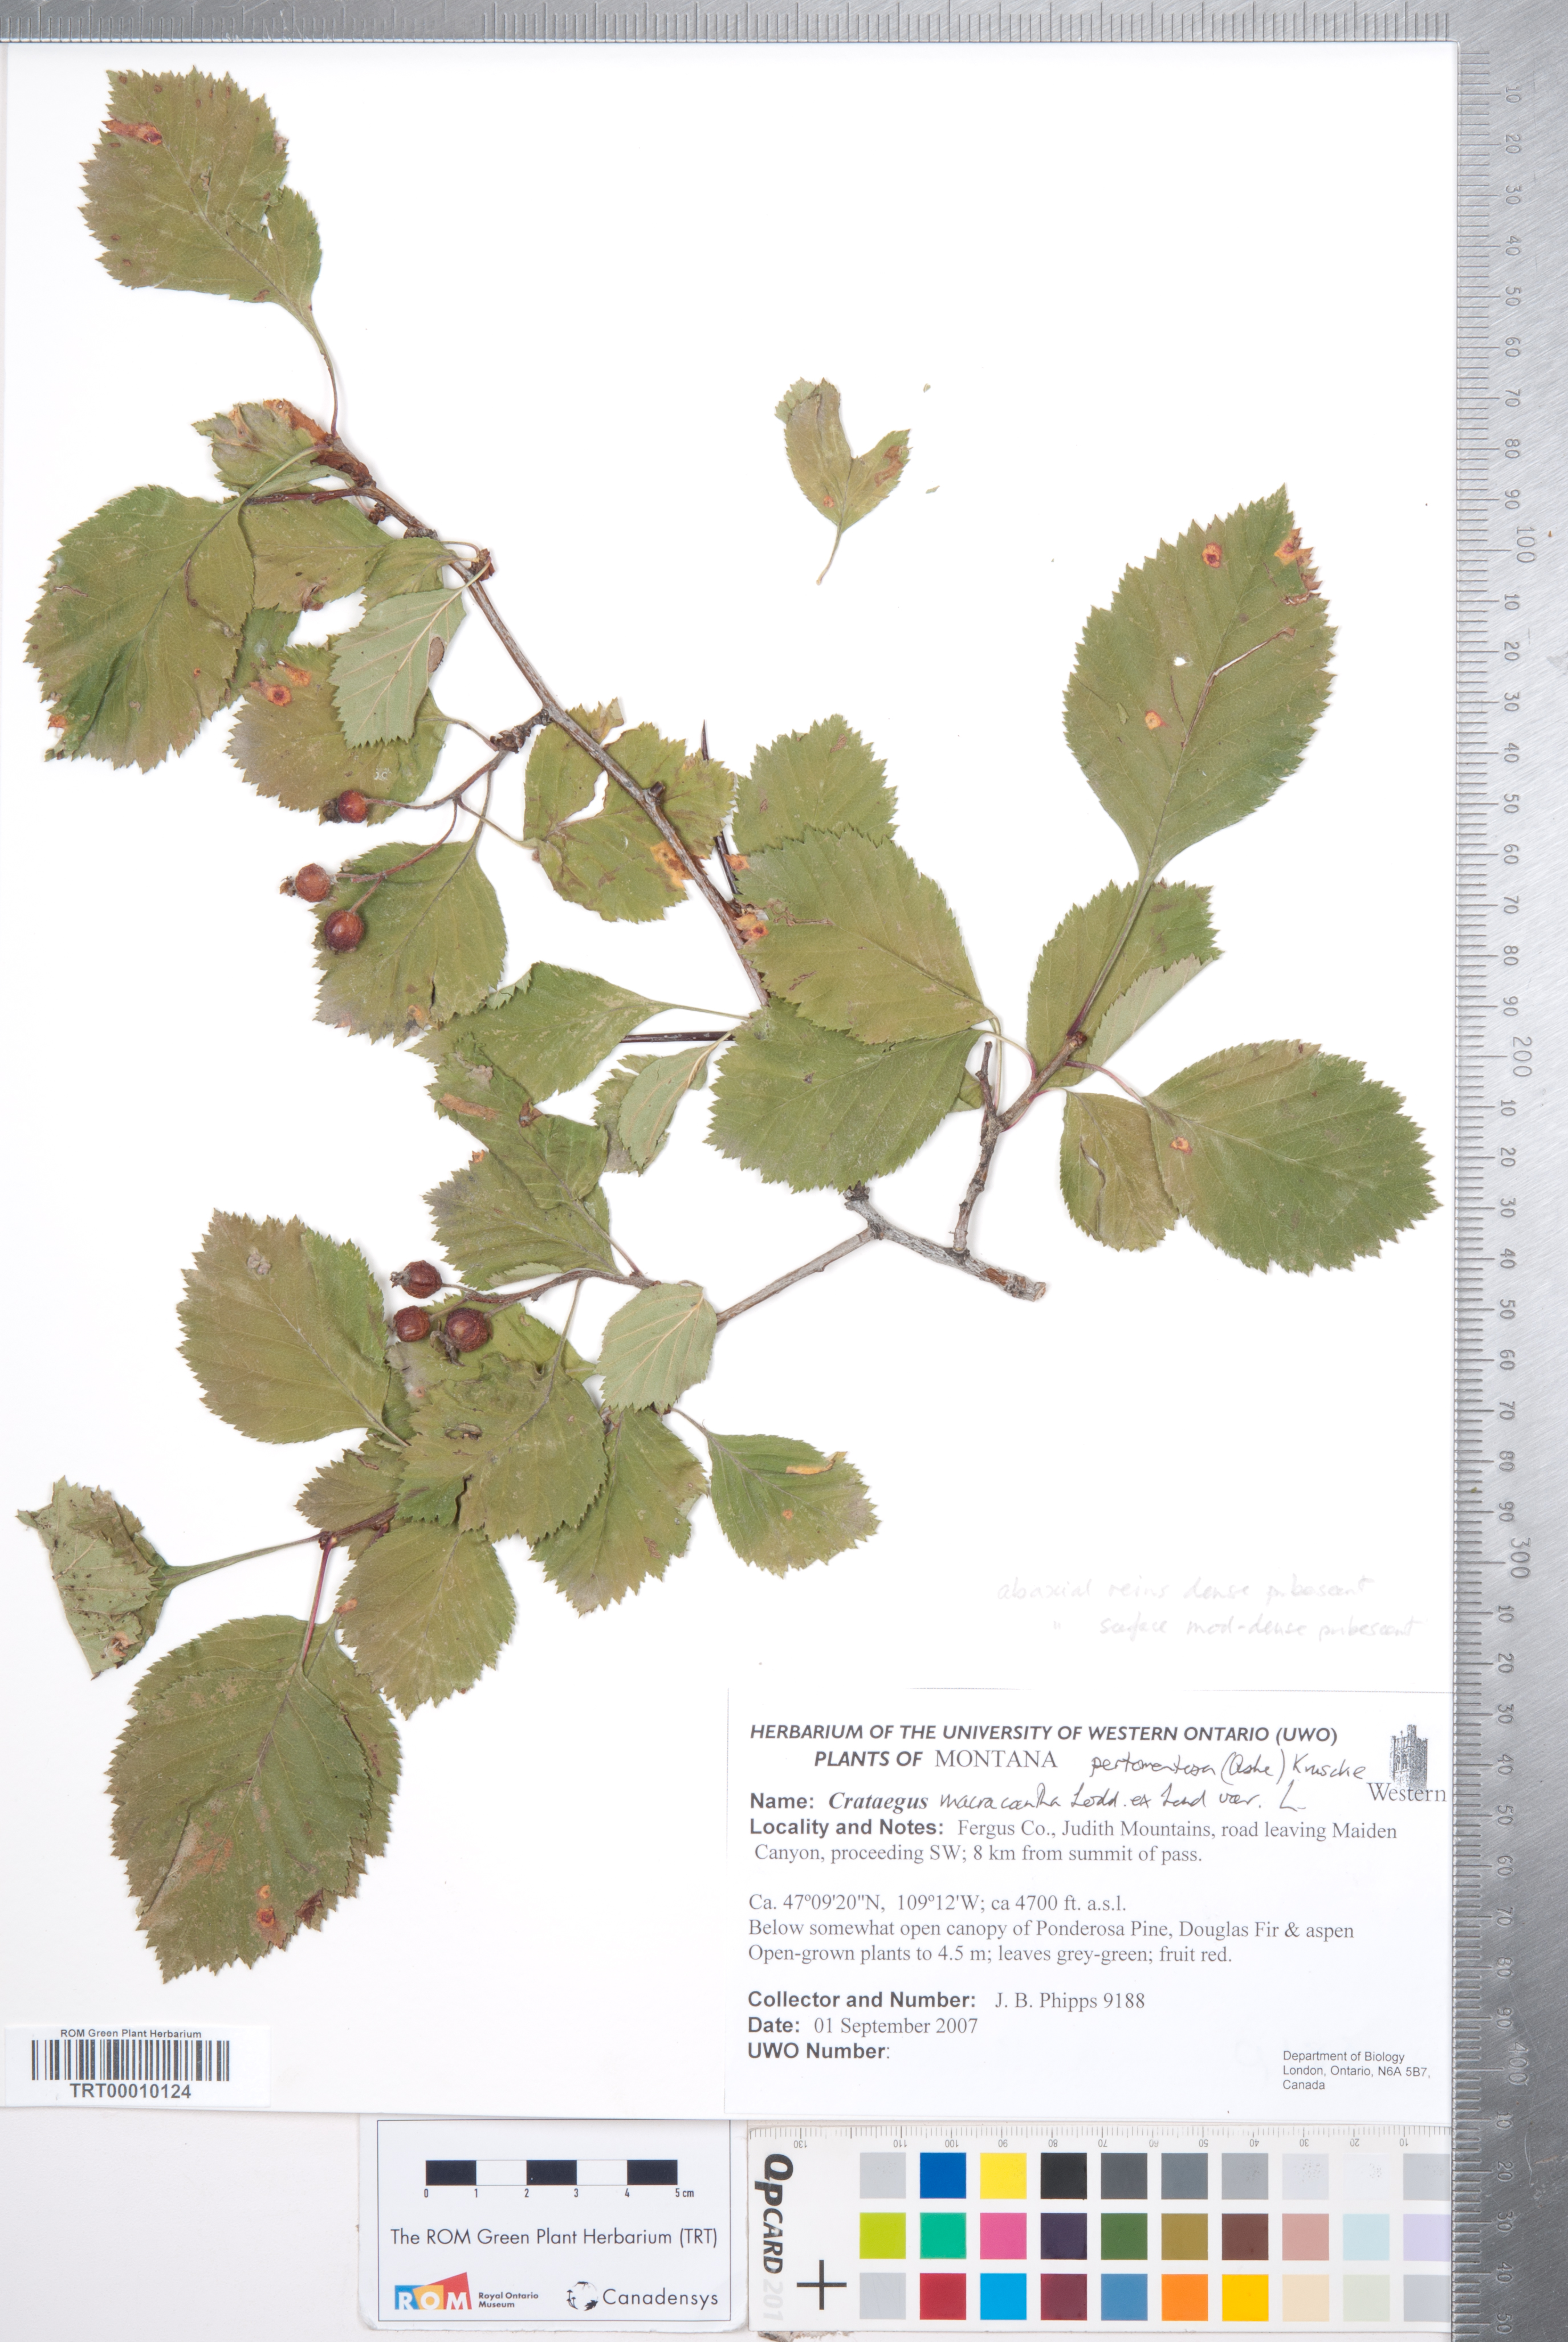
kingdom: Plantae
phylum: Tracheophyta
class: Magnoliopsida
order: Rosales
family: Rosaceae
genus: Crataegus
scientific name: Crataegus
